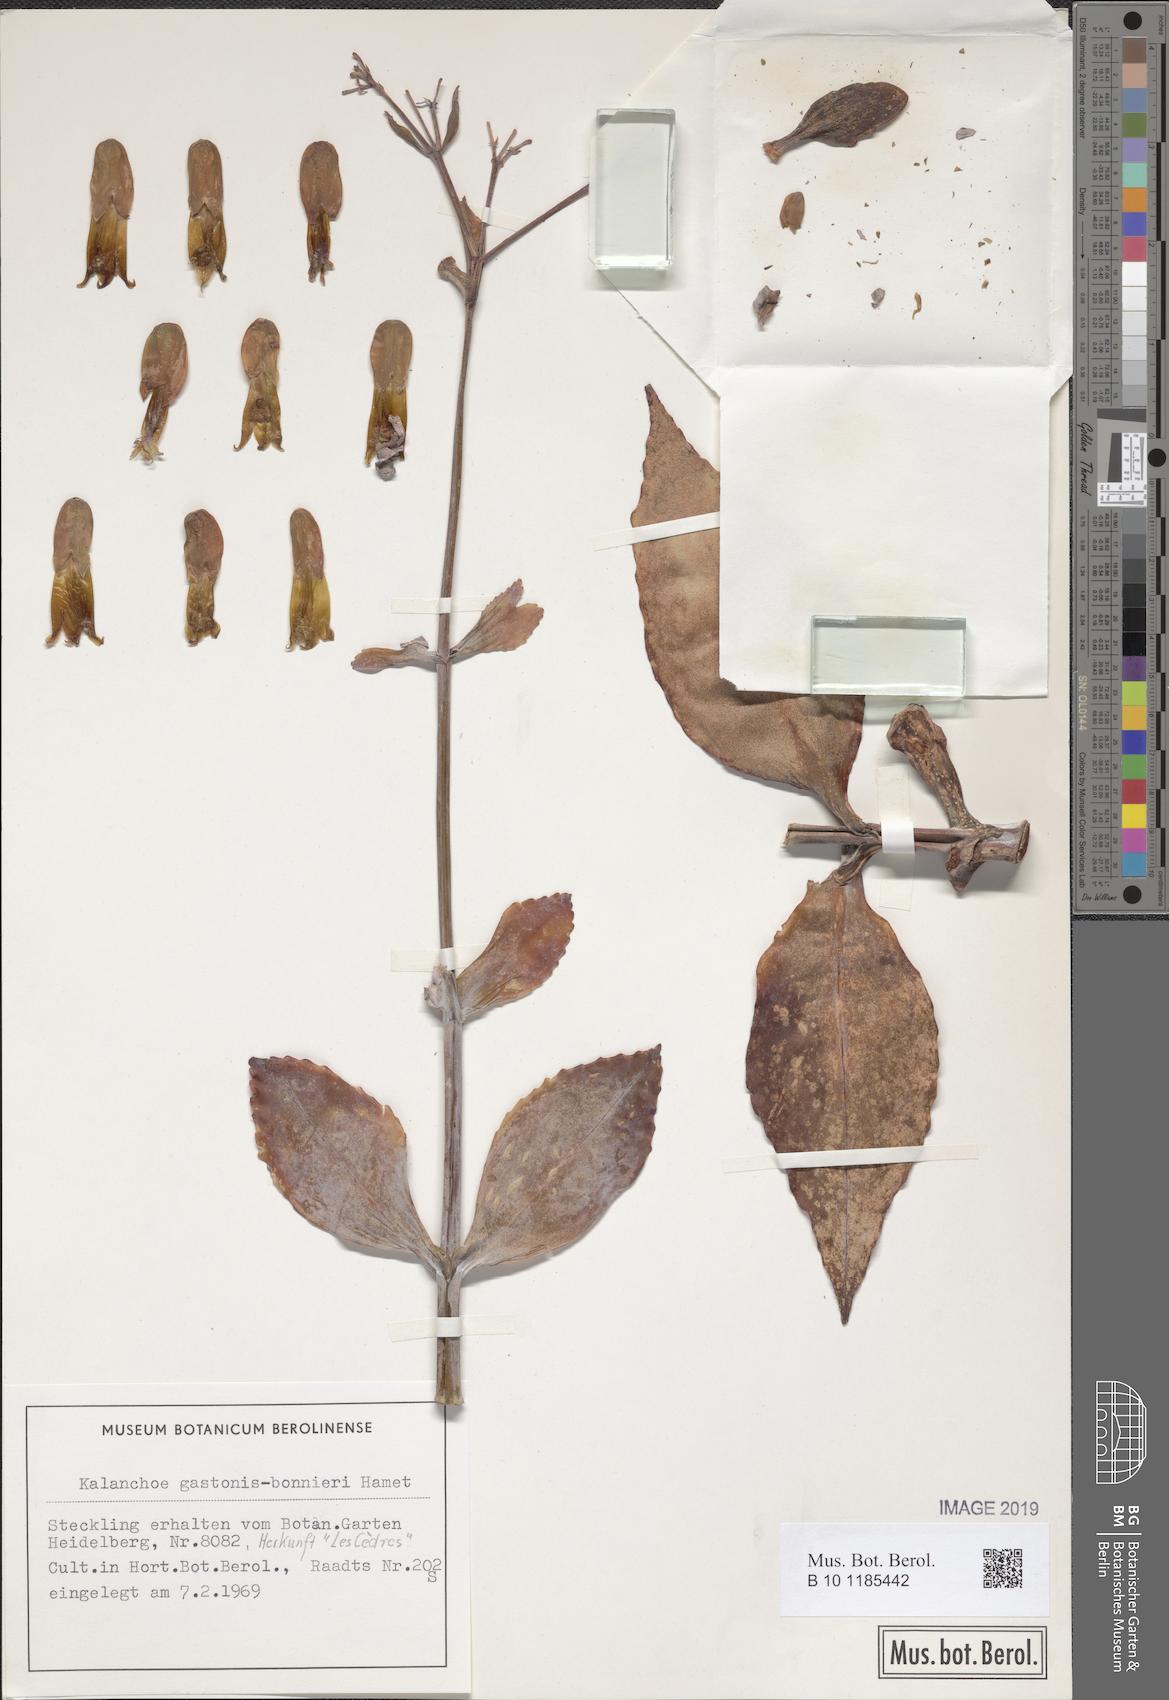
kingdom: Plantae
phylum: Tracheophyta
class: Magnoliopsida
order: Saxifragales
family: Crassulaceae
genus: Kalanchoe
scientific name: Kalanchoe gastonis-bonnieri
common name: Palm beachbells
